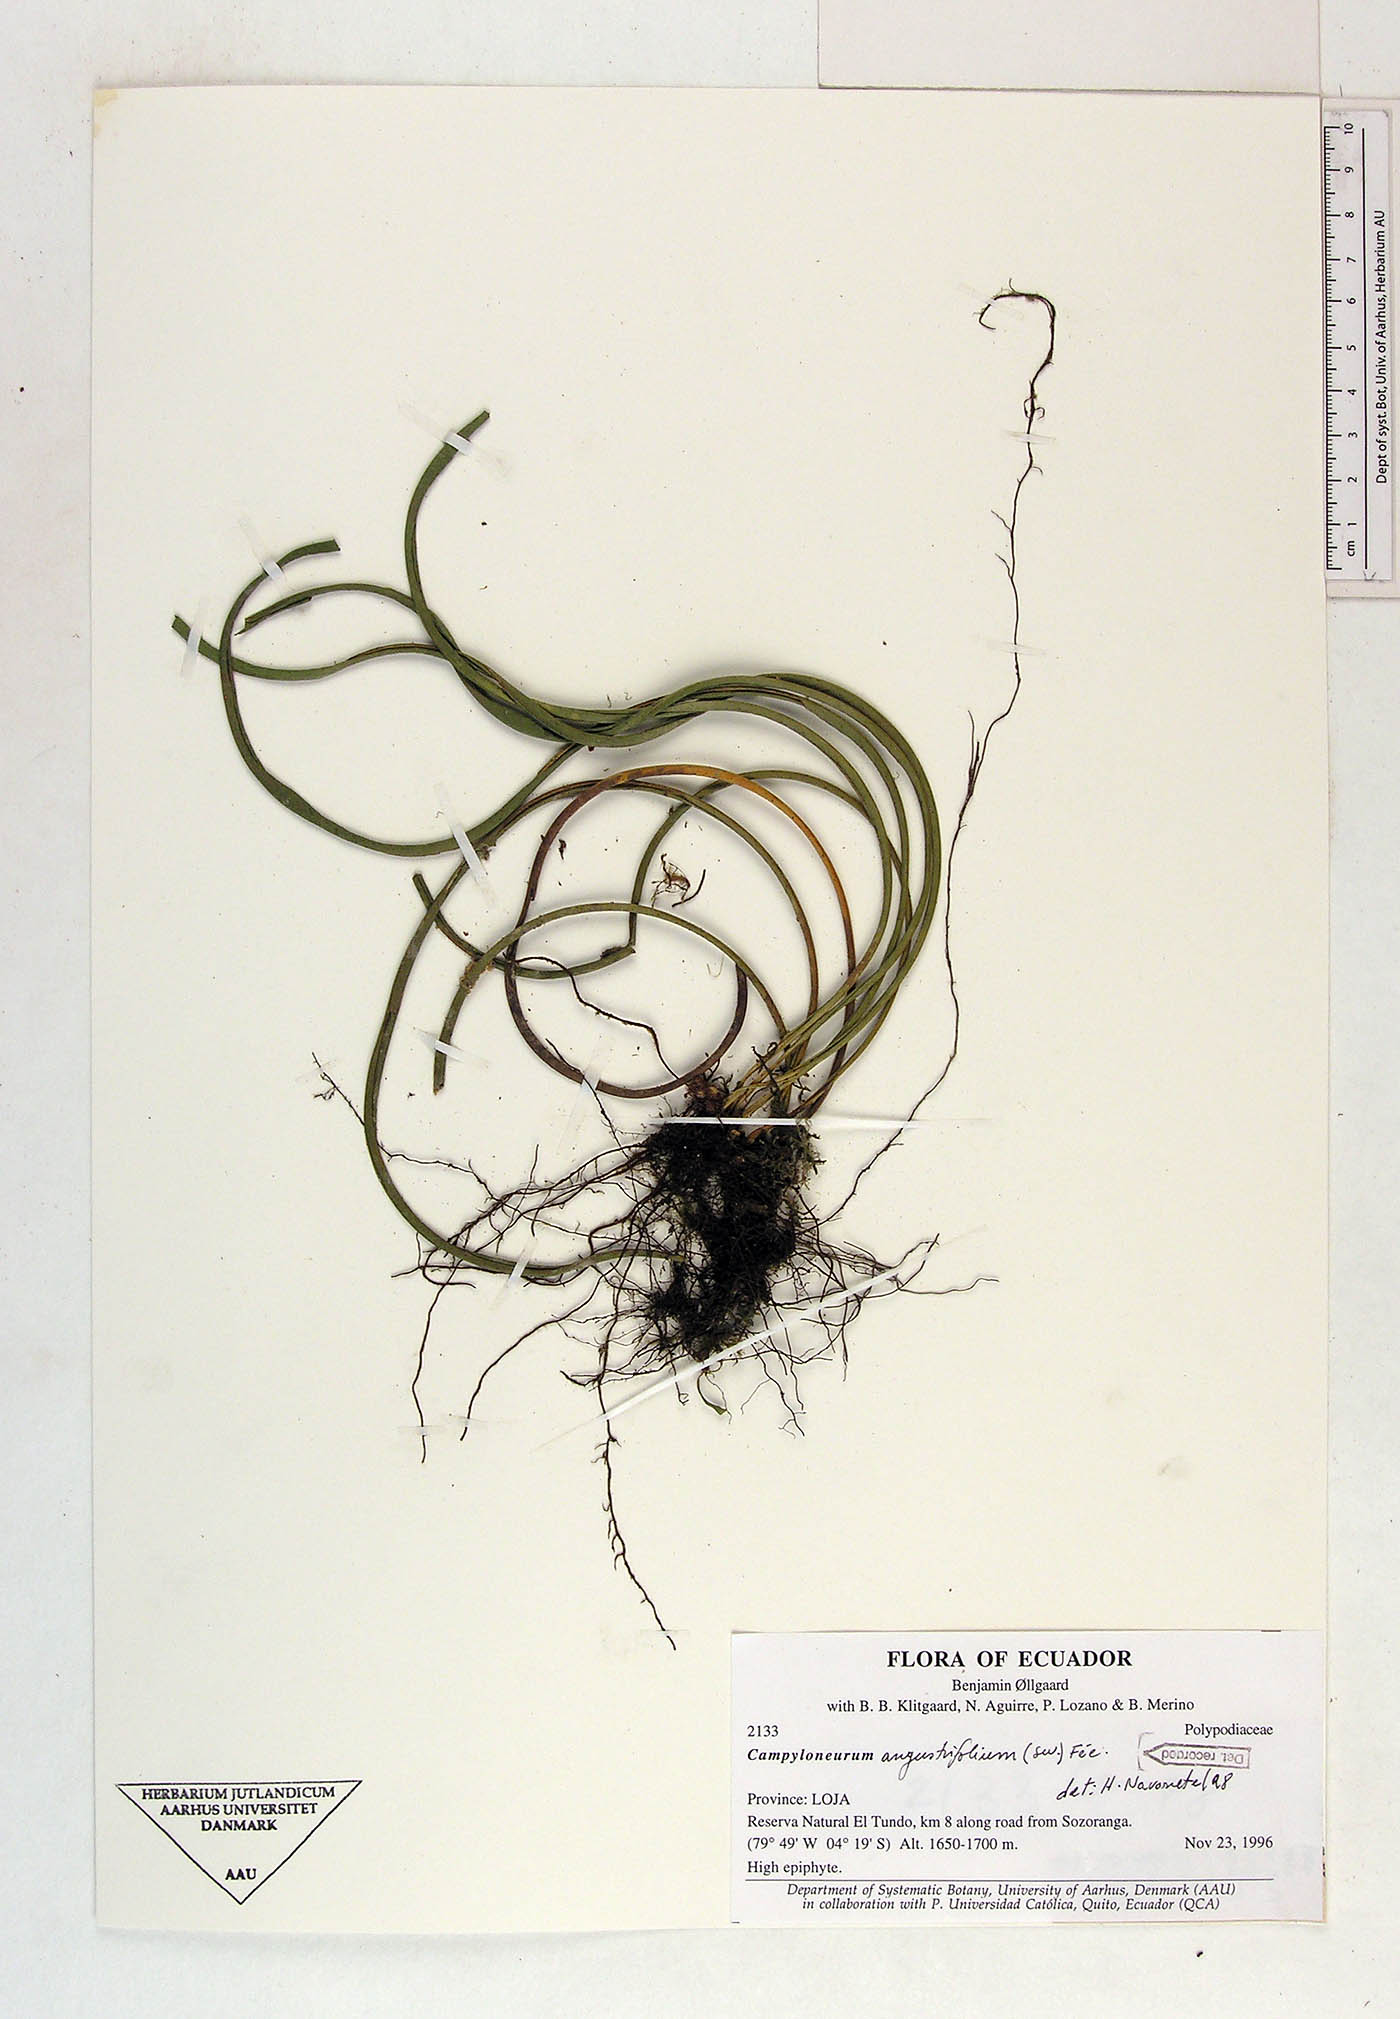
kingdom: Plantae
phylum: Tracheophyta
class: Polypodiopsida
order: Polypodiales
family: Polypodiaceae
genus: Campyloneurum
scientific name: Campyloneurum angustifolium
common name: Narrow-leaf strap fern
